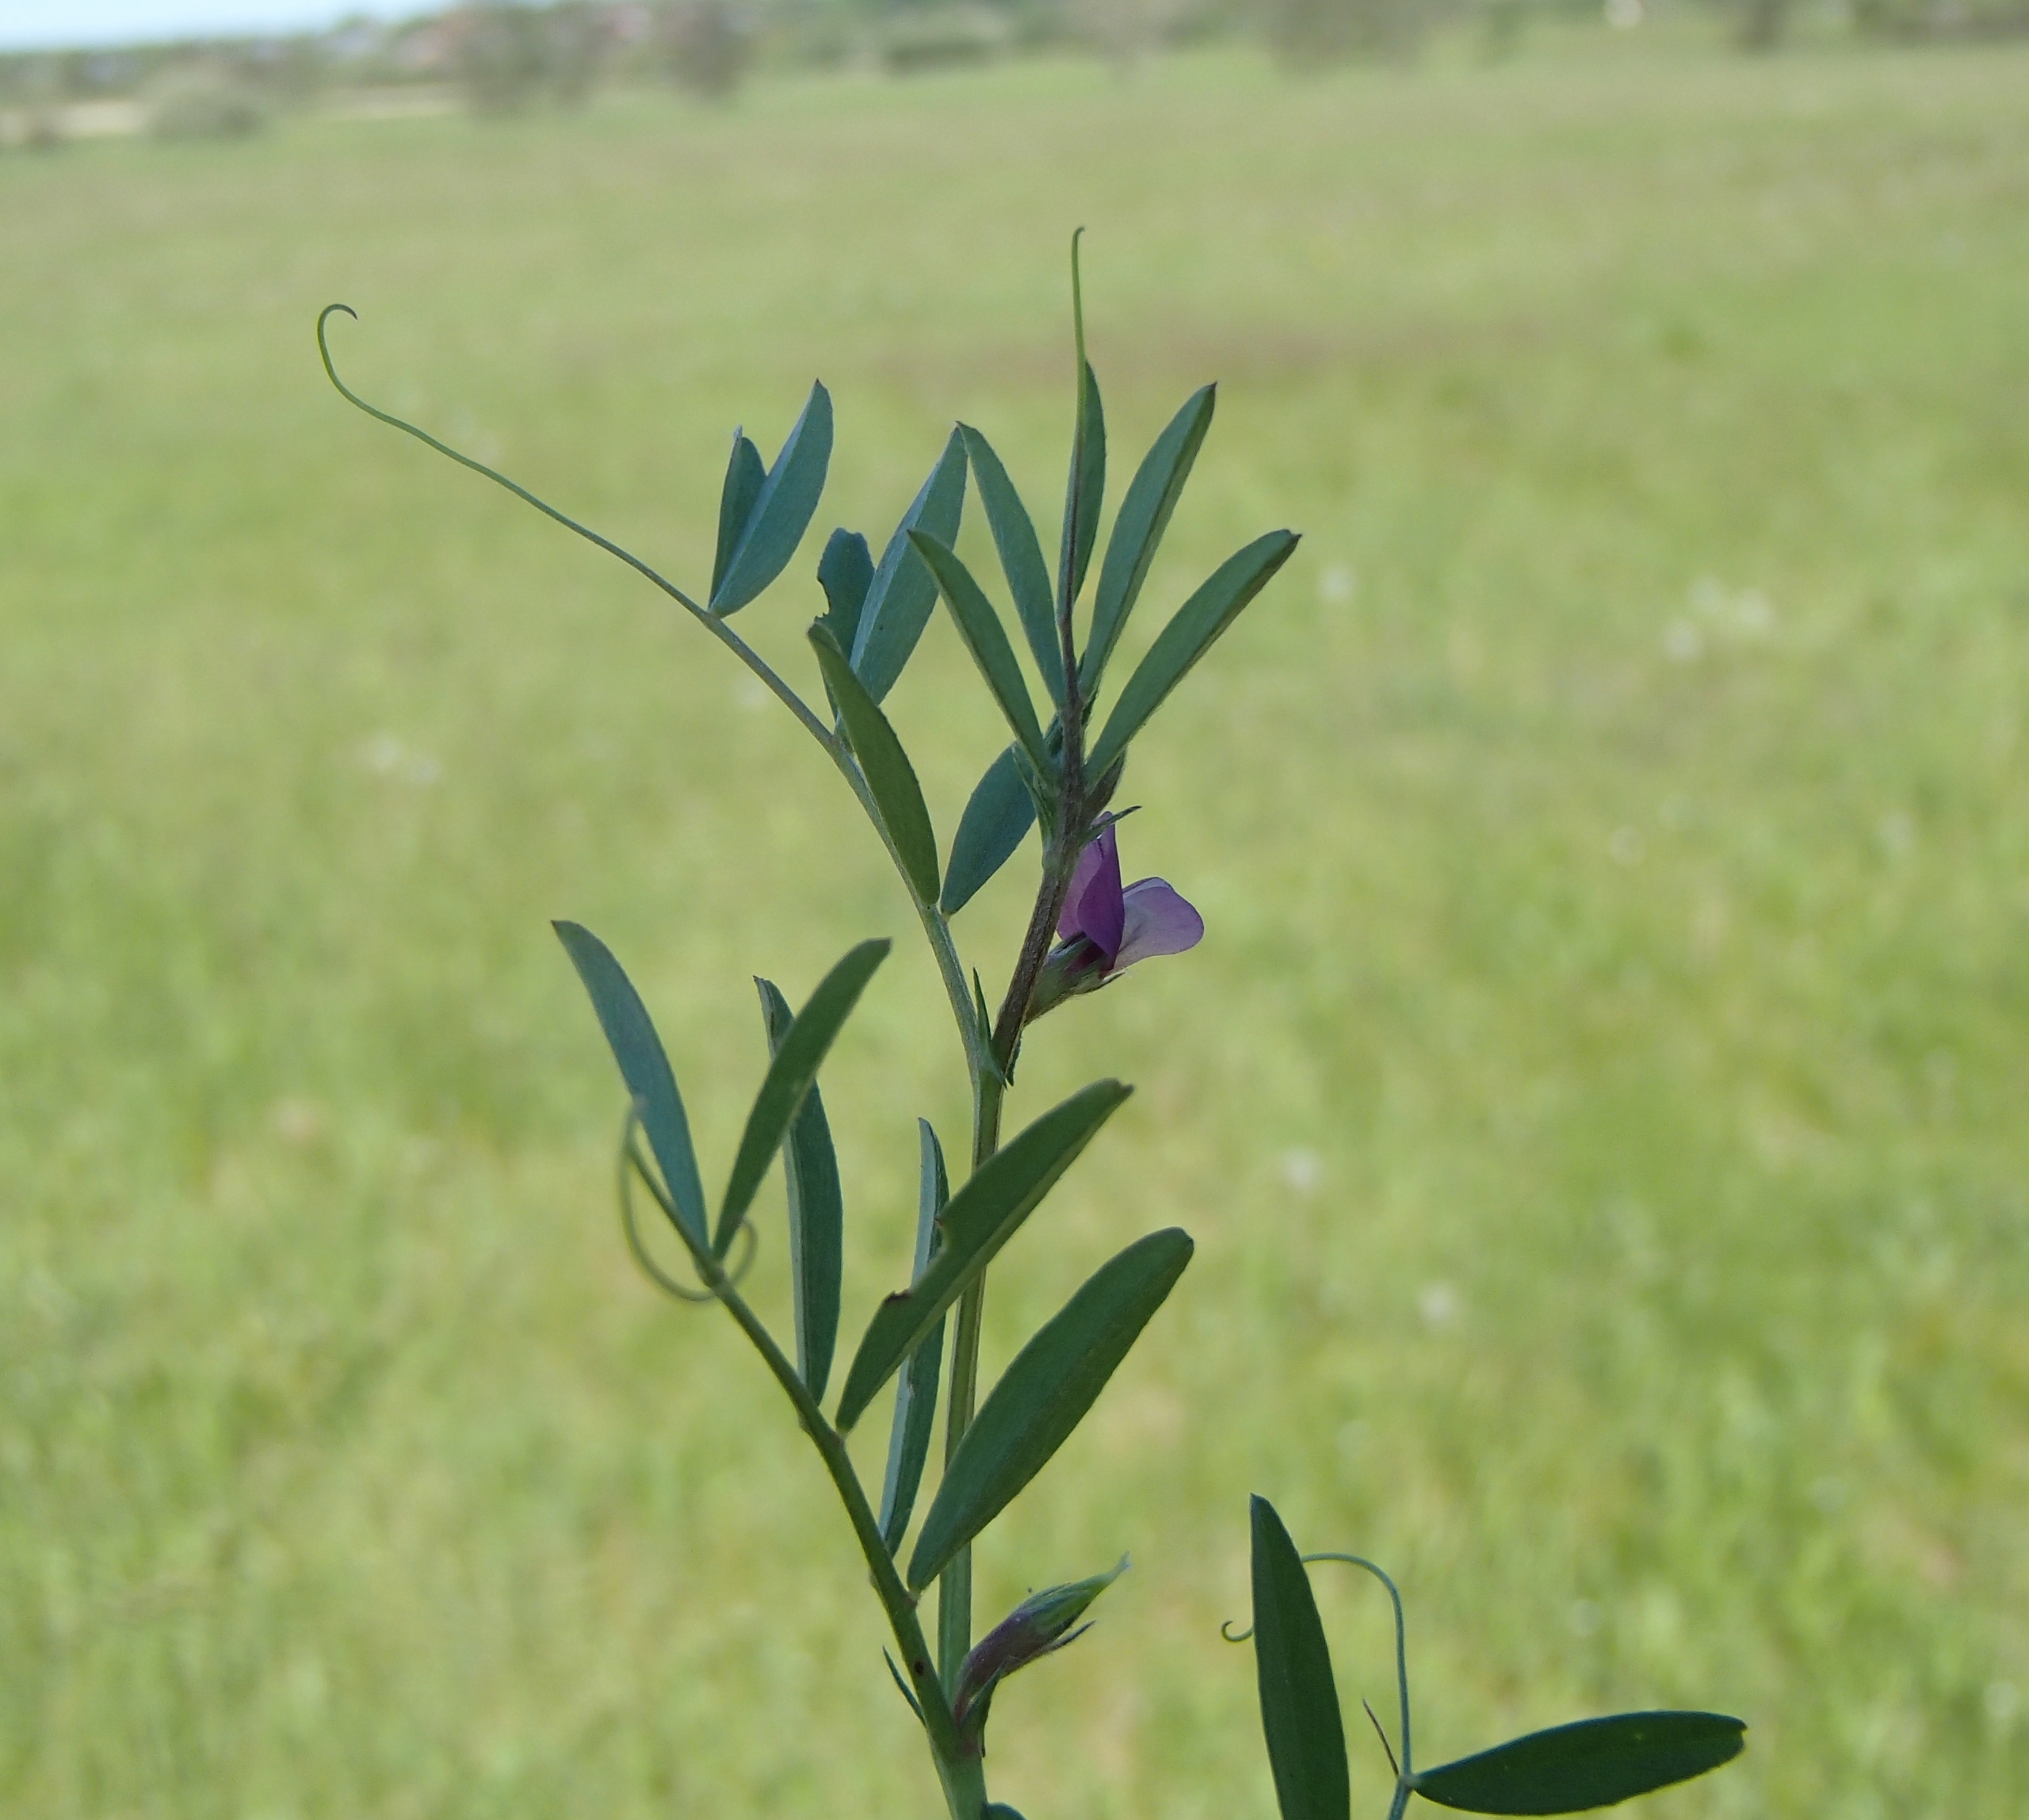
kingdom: Plantae
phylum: Tracheophyta
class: Magnoliopsida
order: Fabales
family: Fabaceae
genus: Vicia
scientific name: Vicia sativa
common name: Smalbladet vikke
